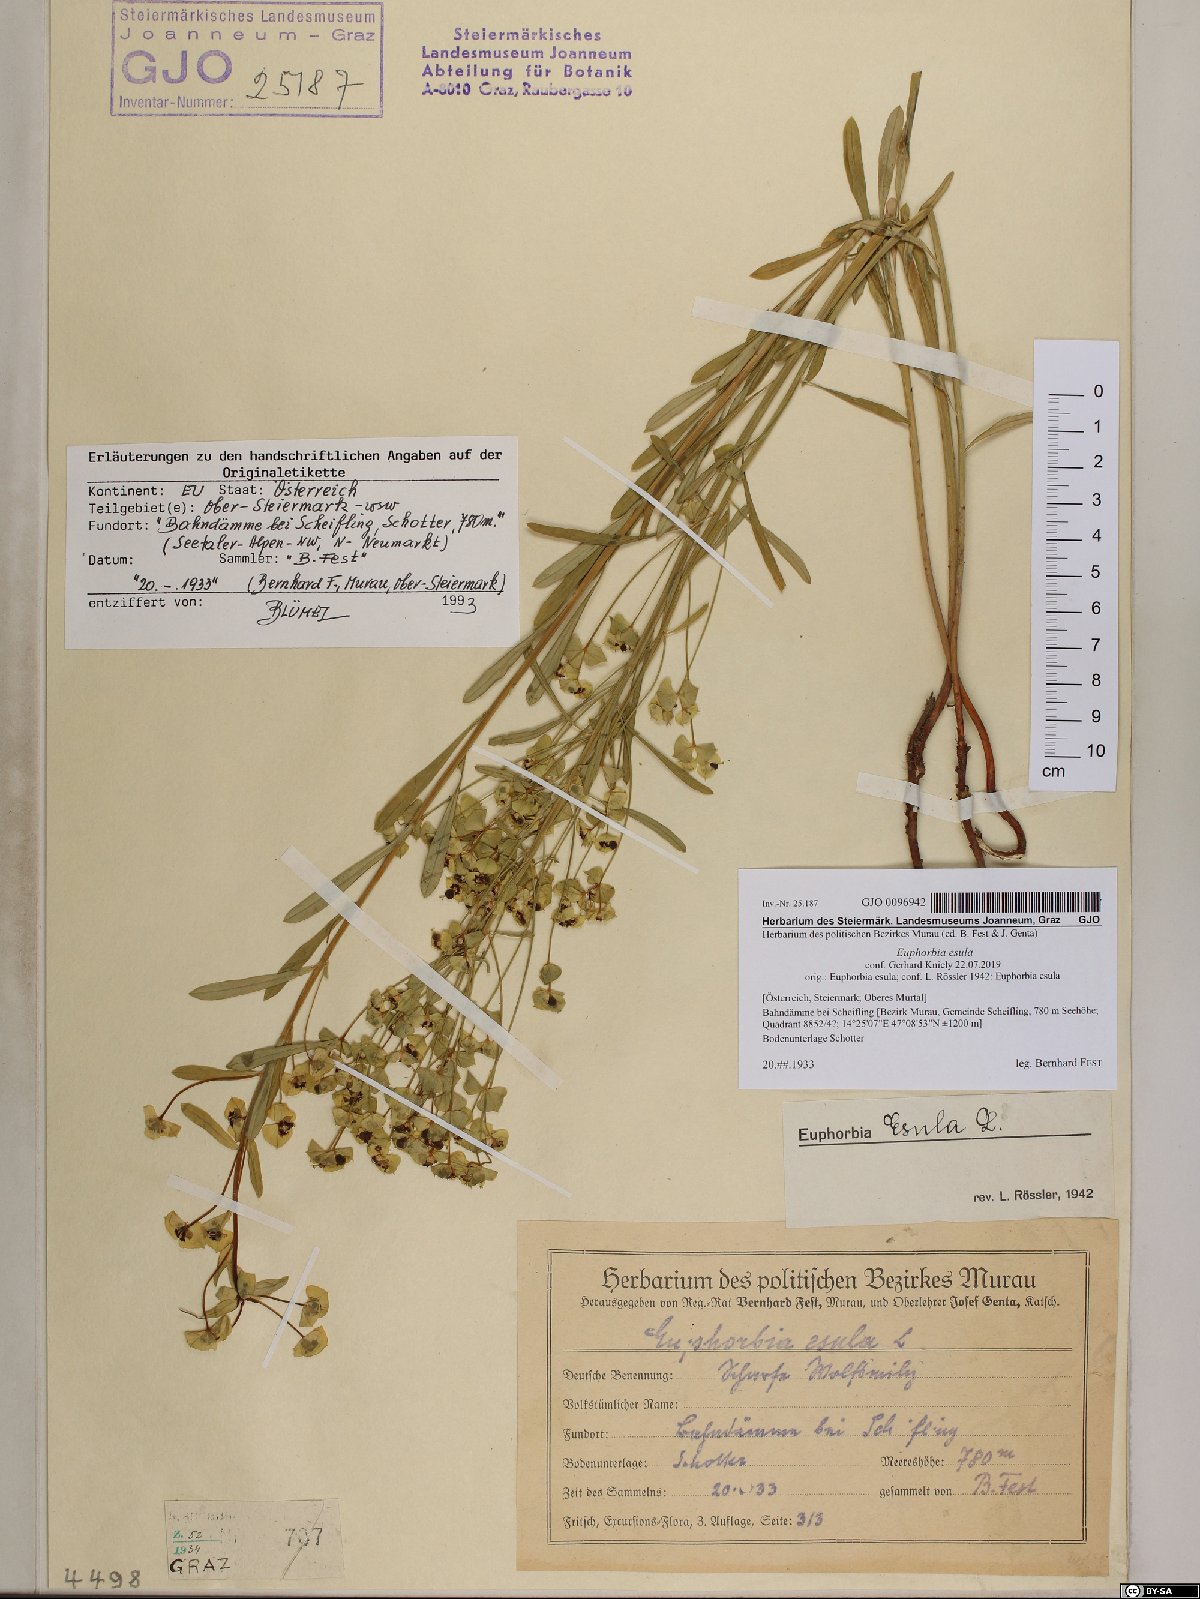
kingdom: Plantae
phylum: Tracheophyta
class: Magnoliopsida
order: Malpighiales
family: Euphorbiaceae
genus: Euphorbia
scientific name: Euphorbia esula
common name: Leafy spurge
